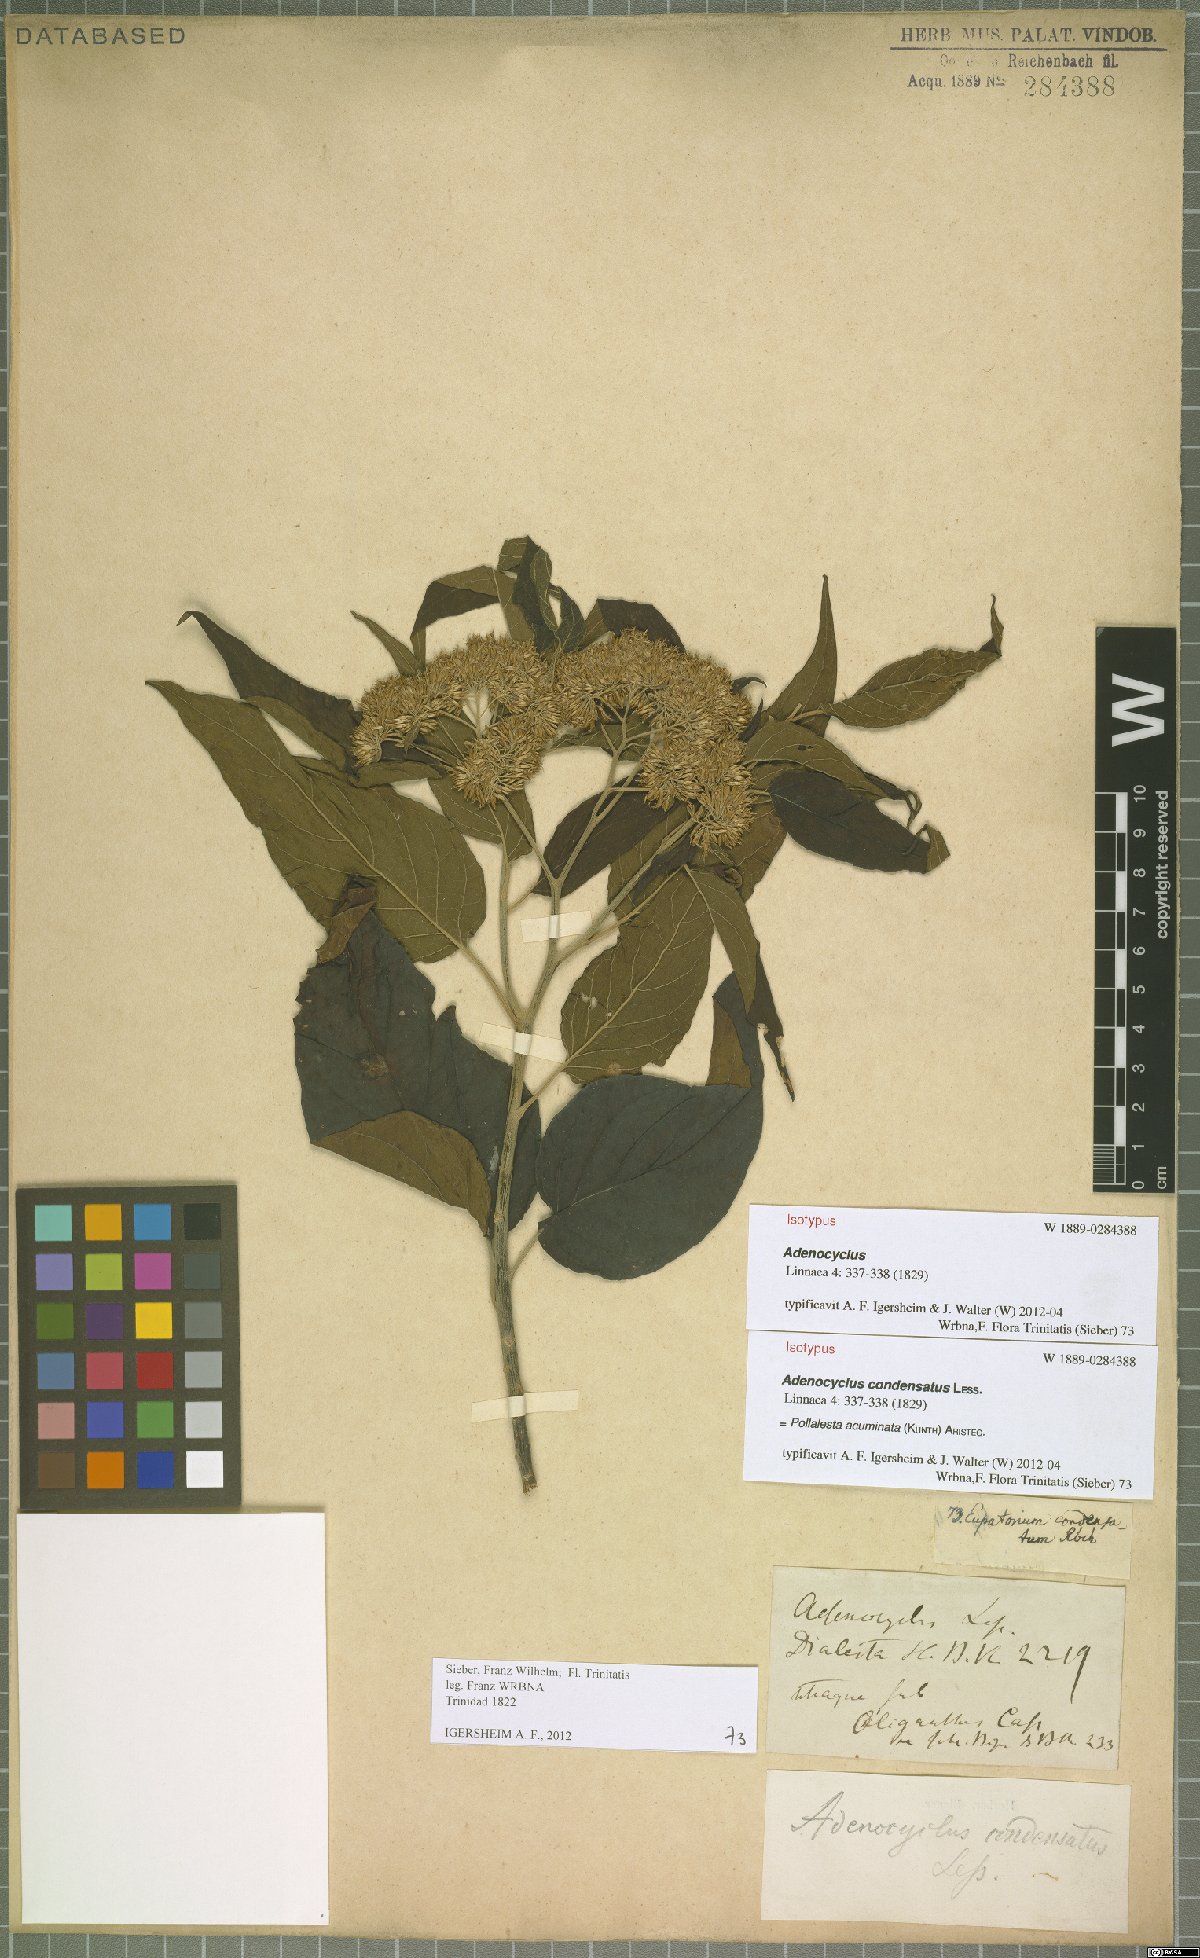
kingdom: Plantae
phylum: Tracheophyta
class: Magnoliopsida
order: Asterales
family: Asteraceae
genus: Piptocoma
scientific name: Piptocoma acuminata
